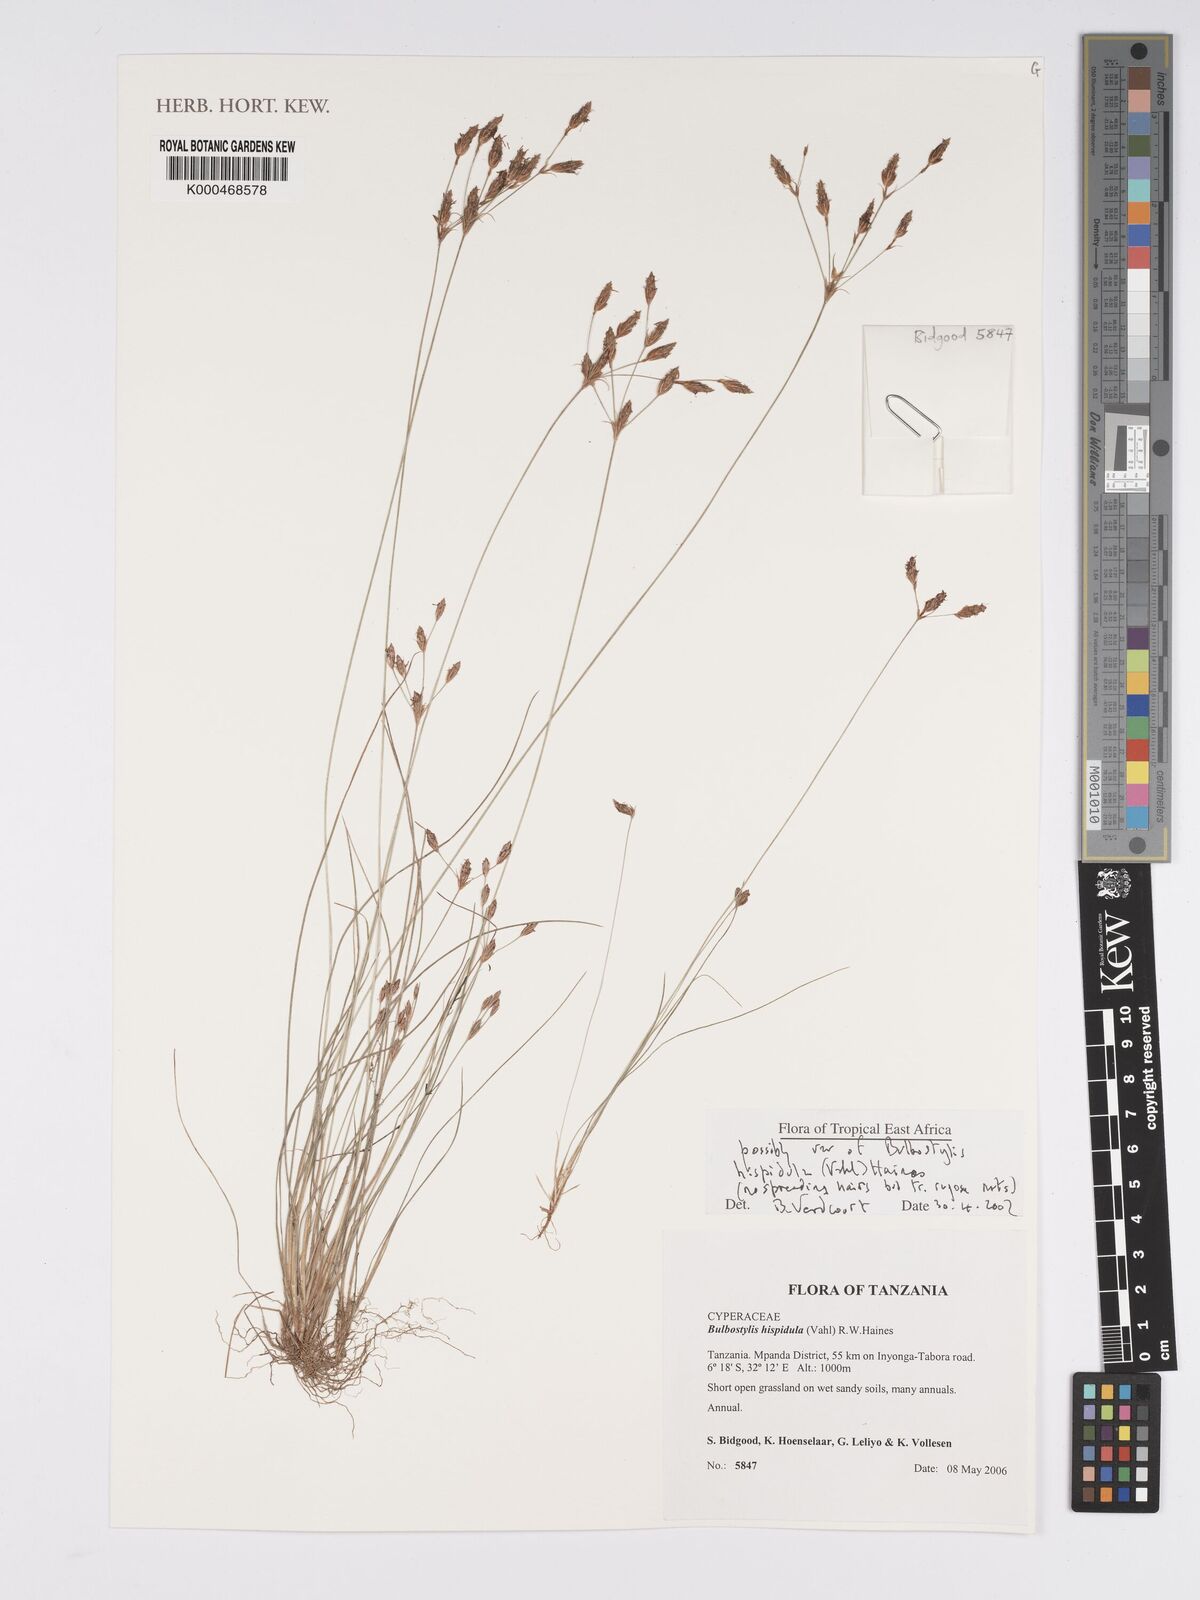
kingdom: Plantae
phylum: Tracheophyta
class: Liliopsida
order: Poales
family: Cyperaceae
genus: Bulbostylis
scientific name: Bulbostylis hispidula
